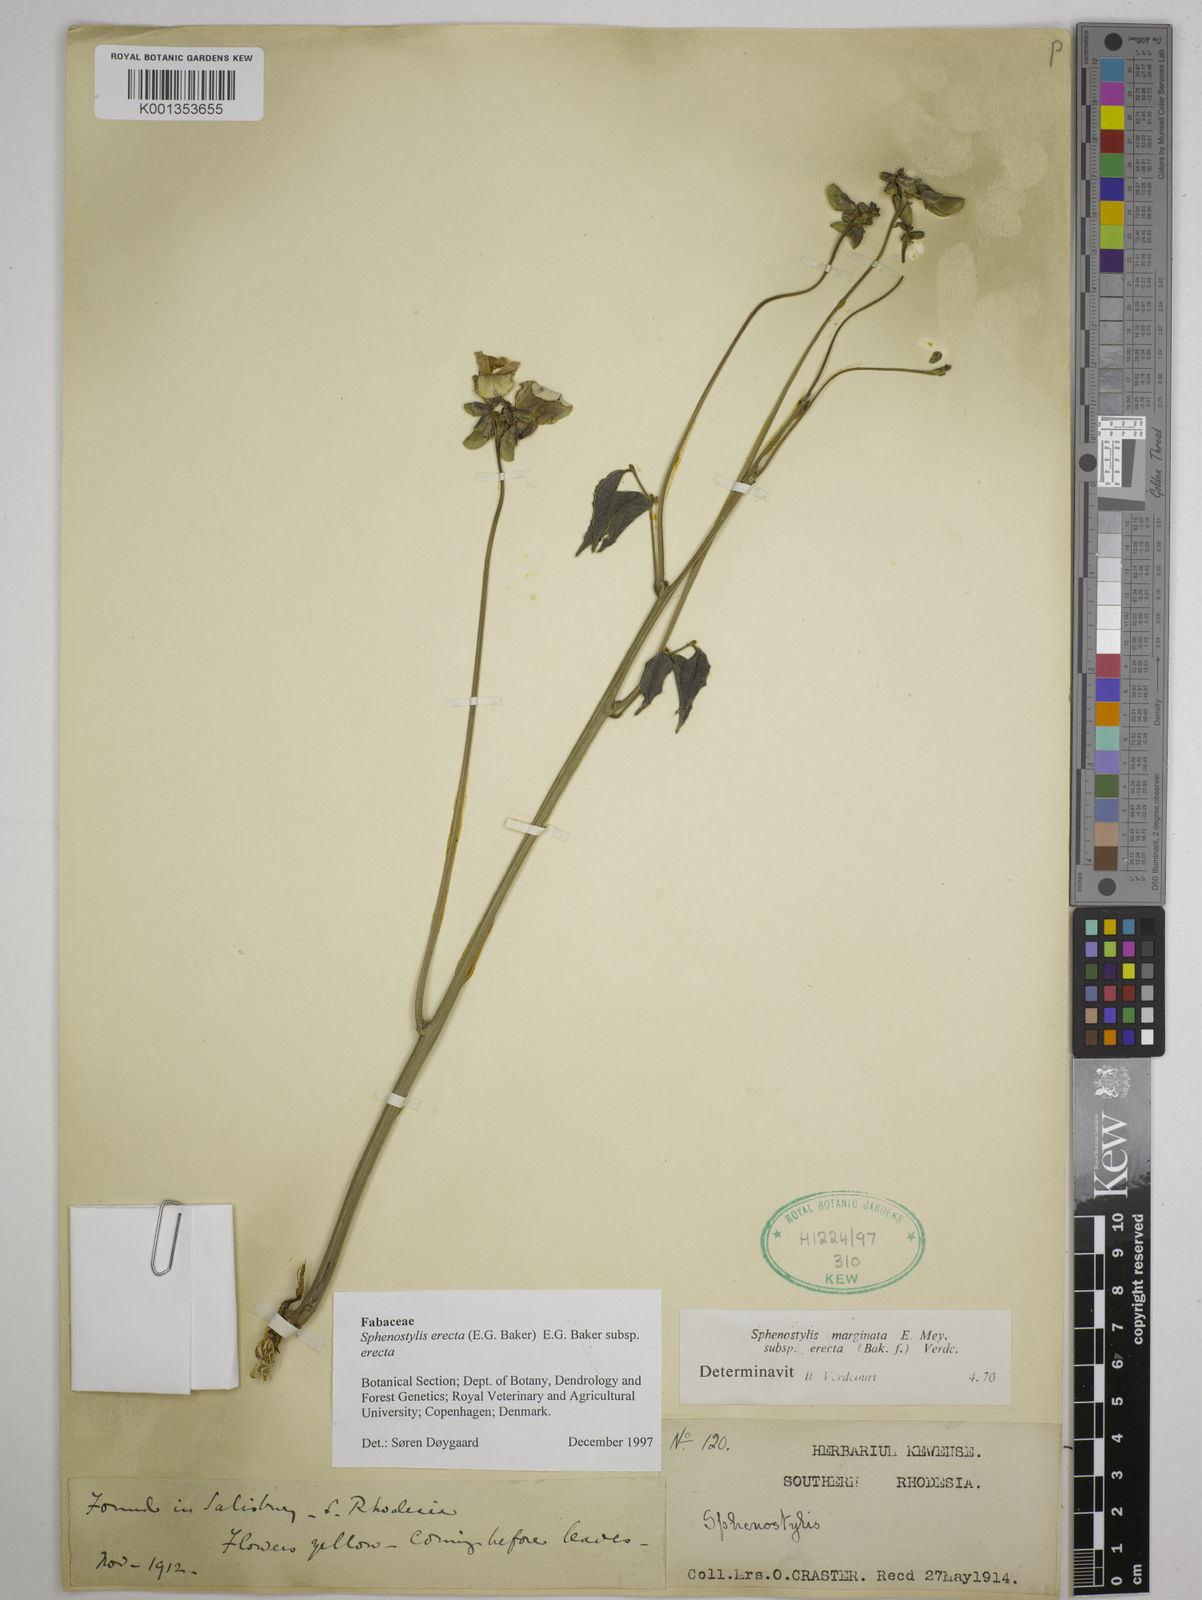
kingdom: Plantae
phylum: Tracheophyta
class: Magnoliopsida
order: Fabales
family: Fabaceae
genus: Sphenostylis
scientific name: Sphenostylis erecta
